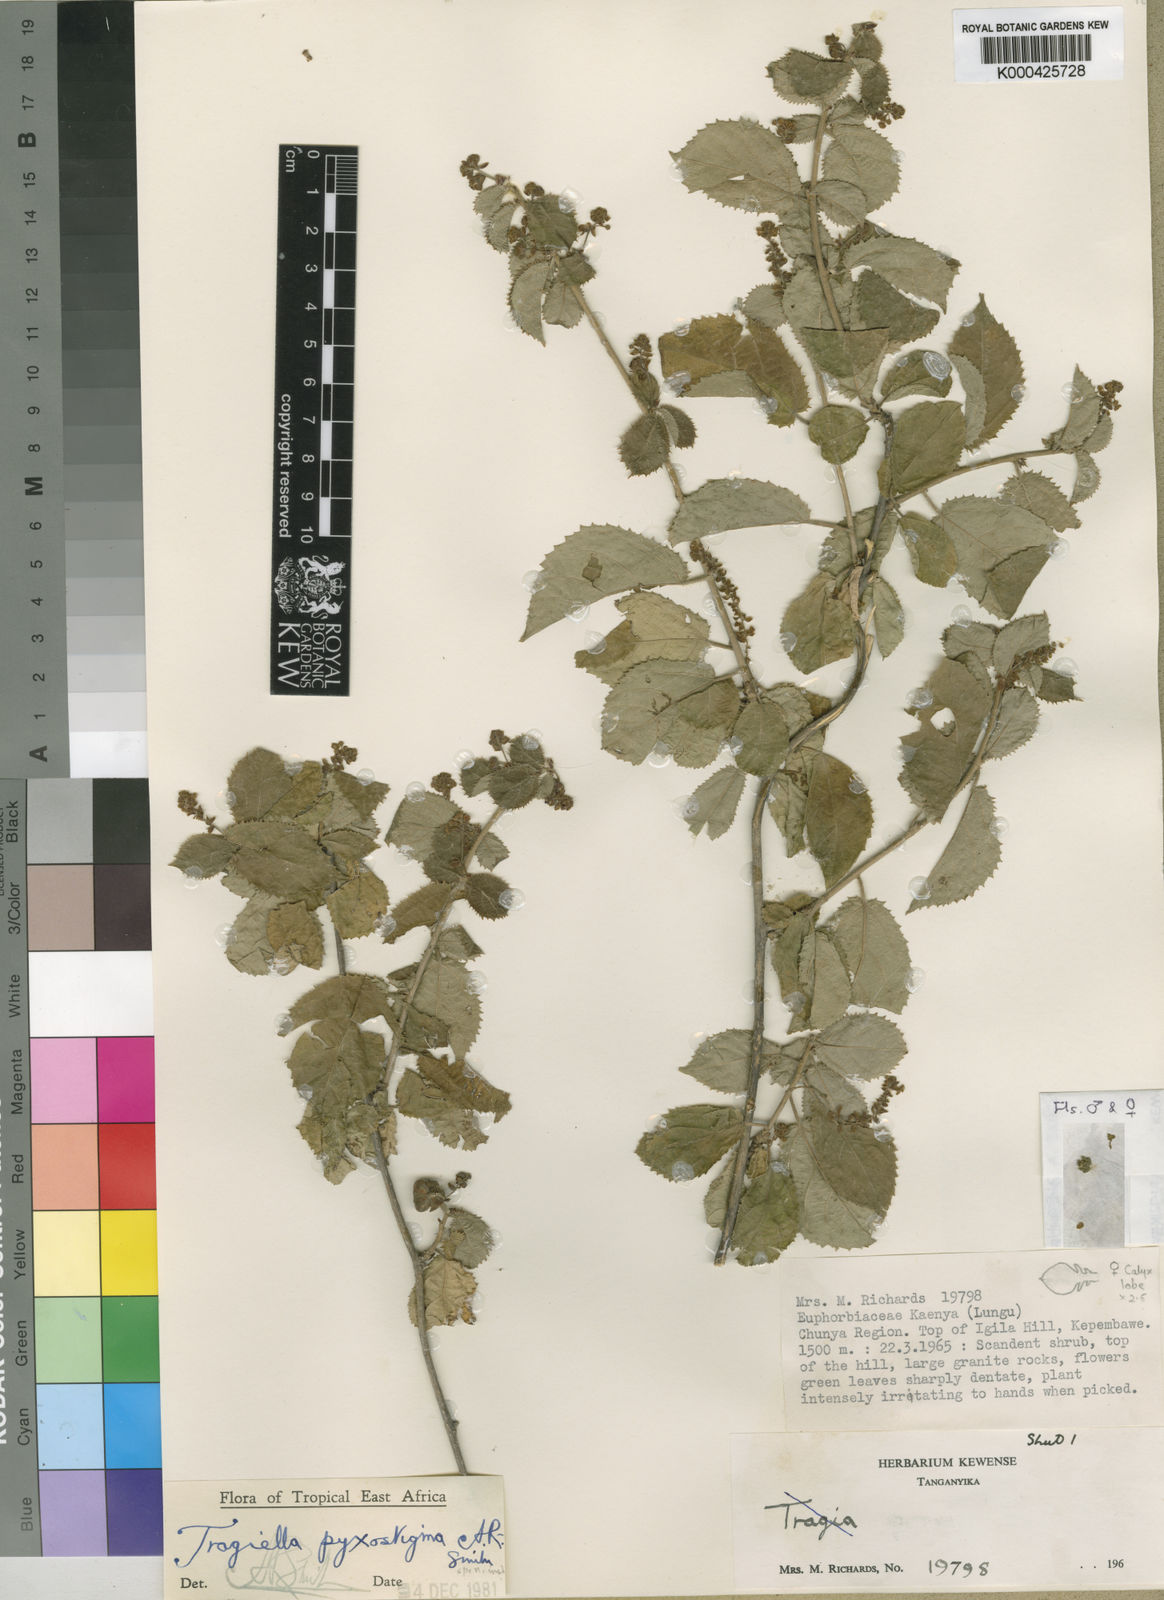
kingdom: Plantae
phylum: Tracheophyta
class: Magnoliopsida
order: Malpighiales
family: Euphorbiaceae
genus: Tragiella
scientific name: Tragiella pyxostigma
